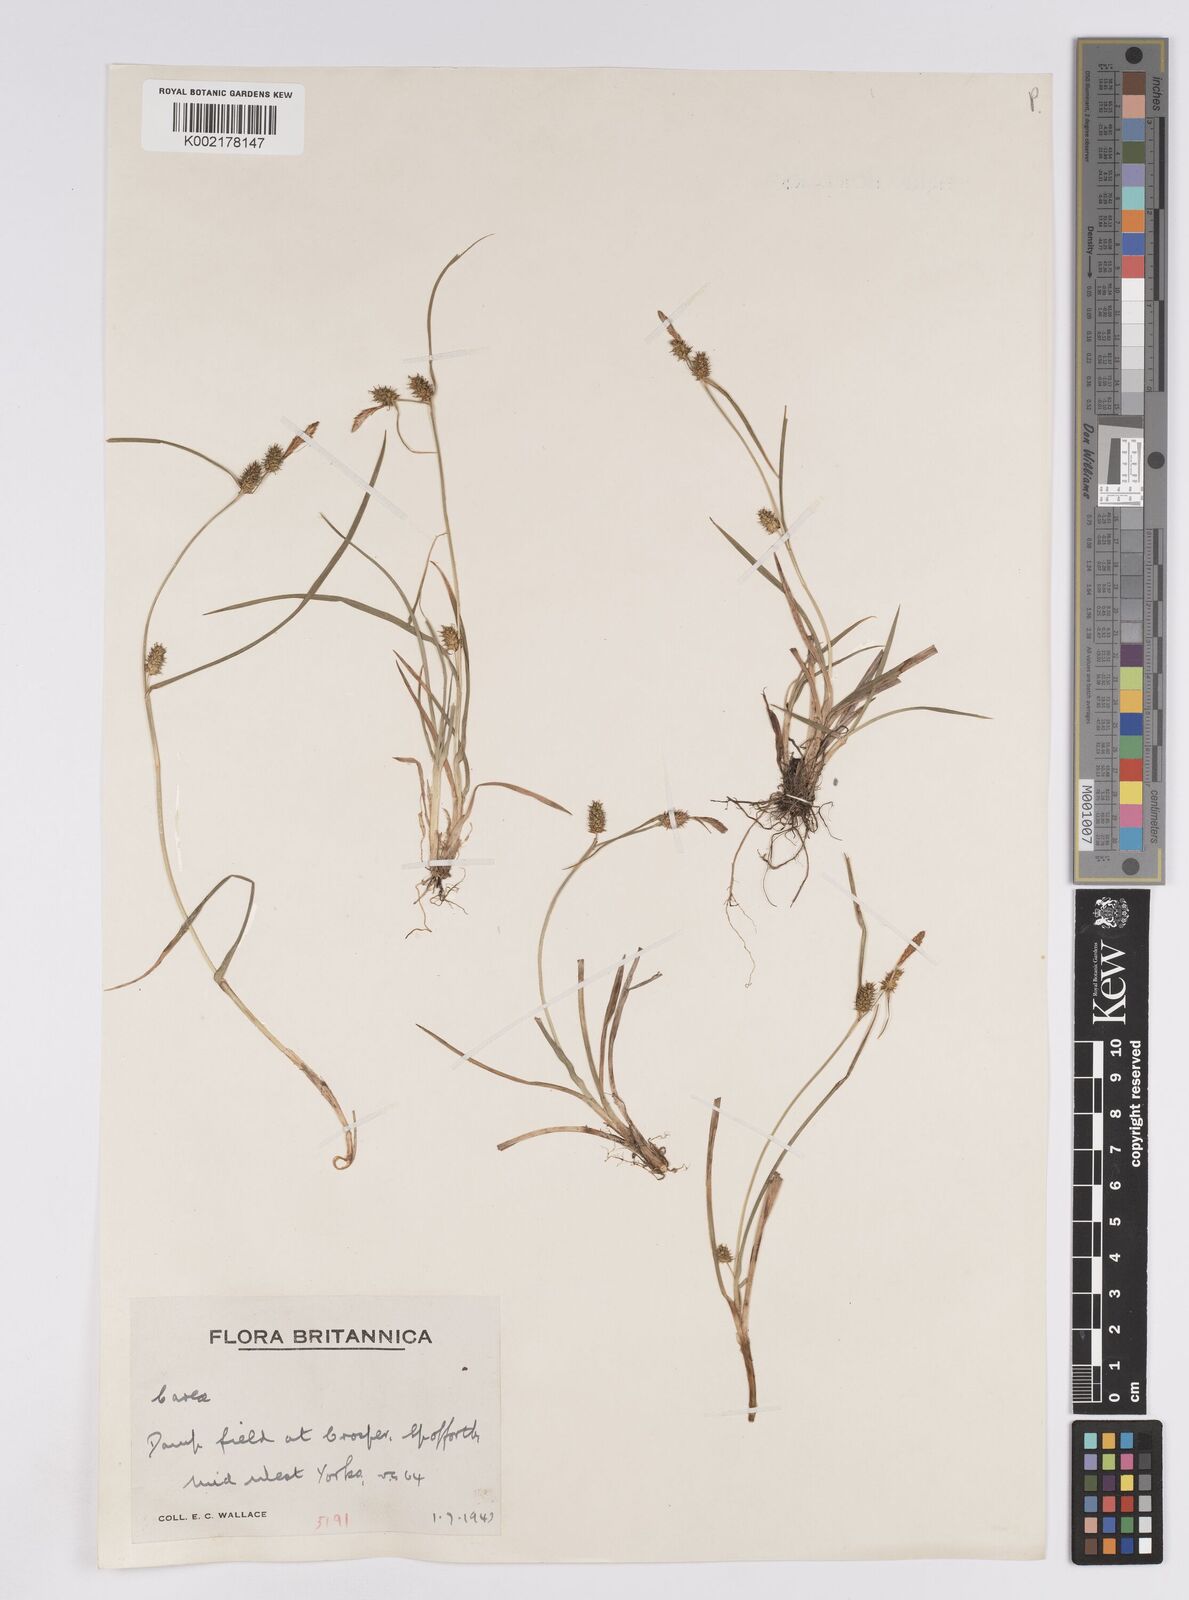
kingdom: Plantae
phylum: Tracheophyta
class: Liliopsida
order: Poales
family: Cyperaceae
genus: Carex
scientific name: Carex demissa
